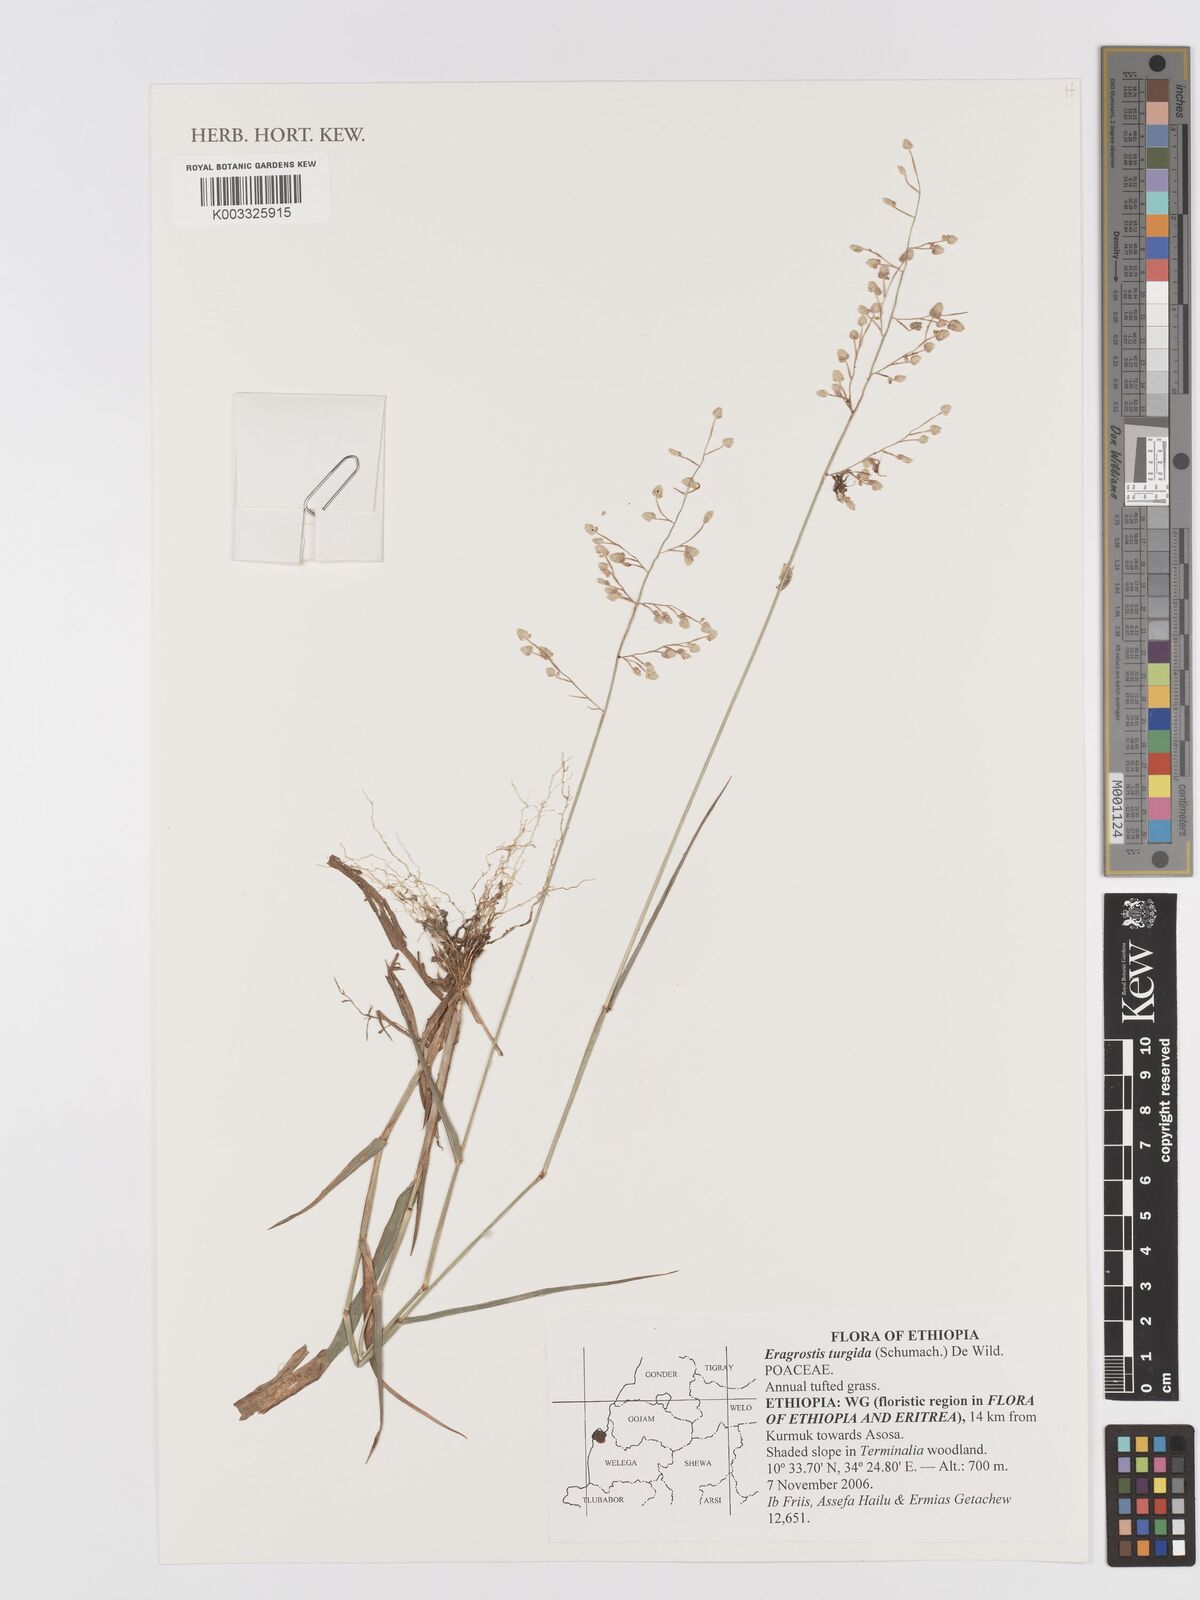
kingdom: Plantae
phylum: Tracheophyta
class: Liliopsida
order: Poales
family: Poaceae
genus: Eragrostis
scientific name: Eragrostis turgida
